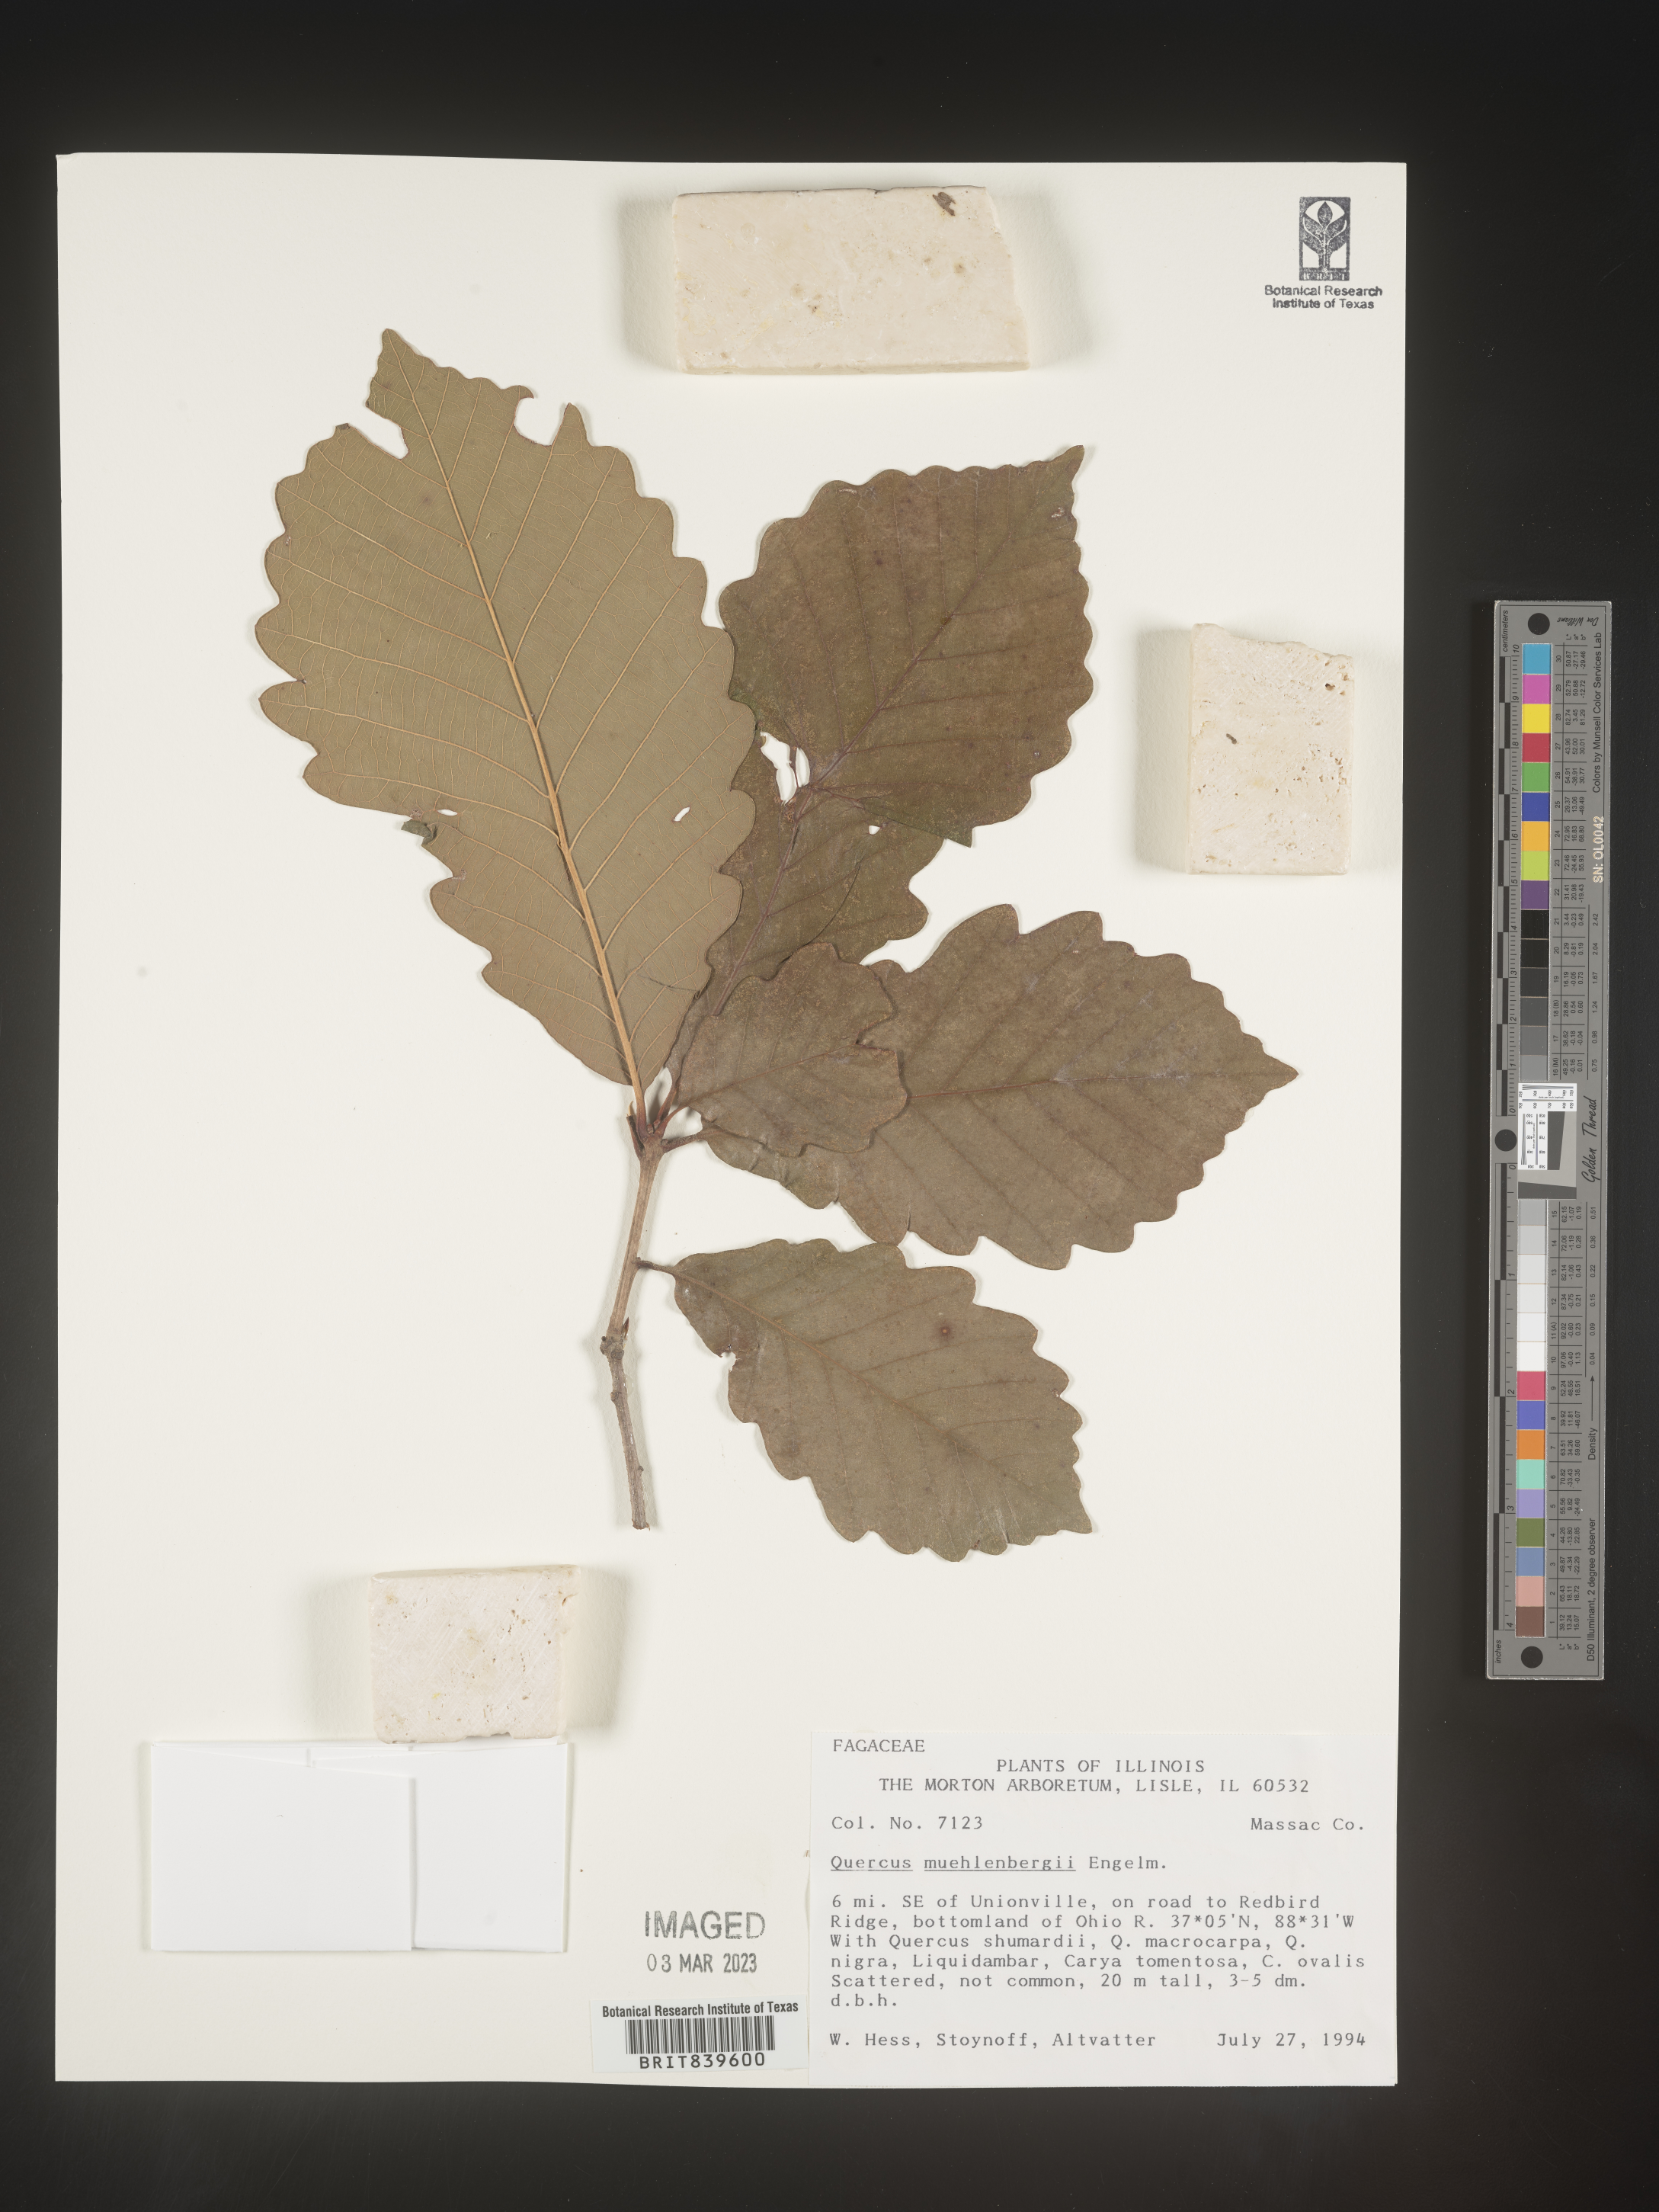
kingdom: Plantae
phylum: Tracheophyta
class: Magnoliopsida
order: Fagales
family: Fagaceae
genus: Quercus
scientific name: Quercus muehlenbergii
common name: Chinkapin oak
